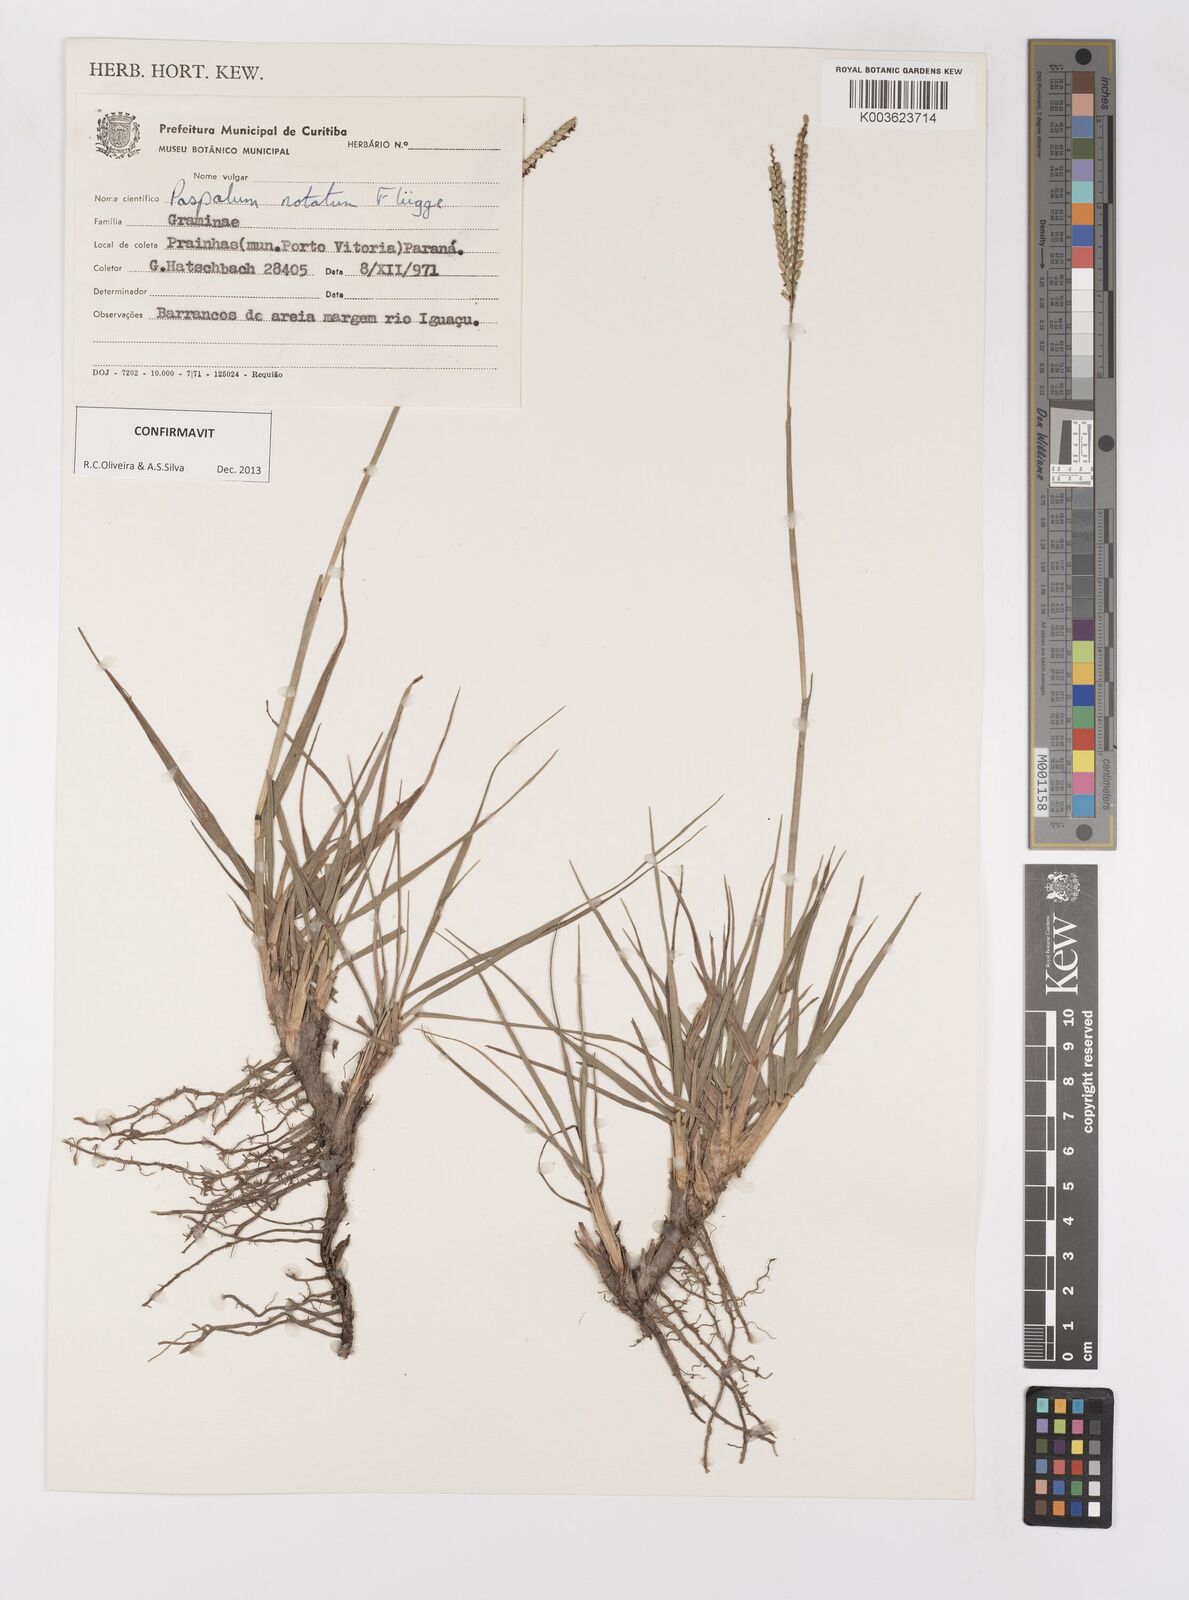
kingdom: Plantae
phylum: Tracheophyta
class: Liliopsida
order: Poales
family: Poaceae
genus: Paspalum
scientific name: Paspalum notatum
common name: Bahiagrass
